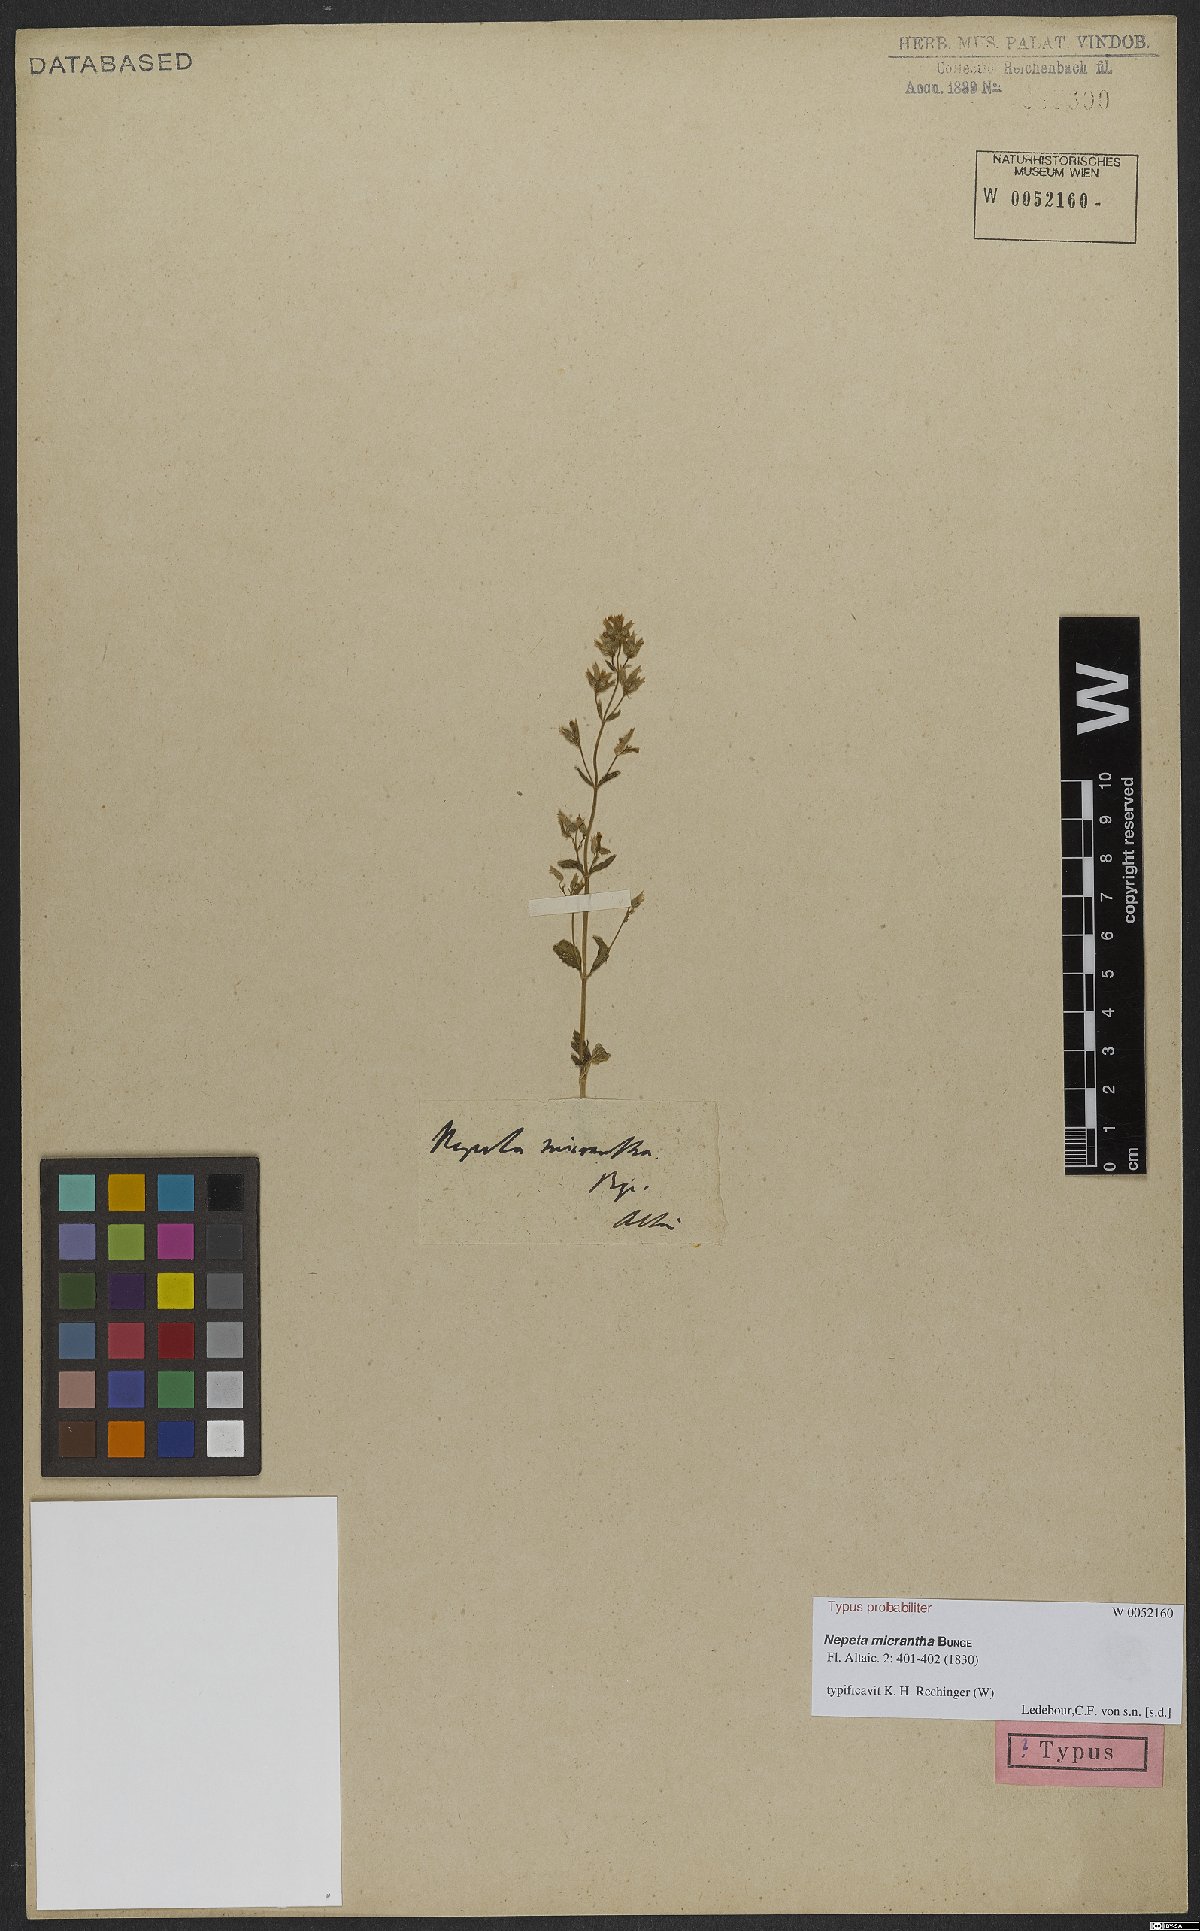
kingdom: Plantae
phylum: Tracheophyta
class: Magnoliopsida
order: Lamiales
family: Lamiaceae
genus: Nepeta
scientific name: Nepeta micrantha
